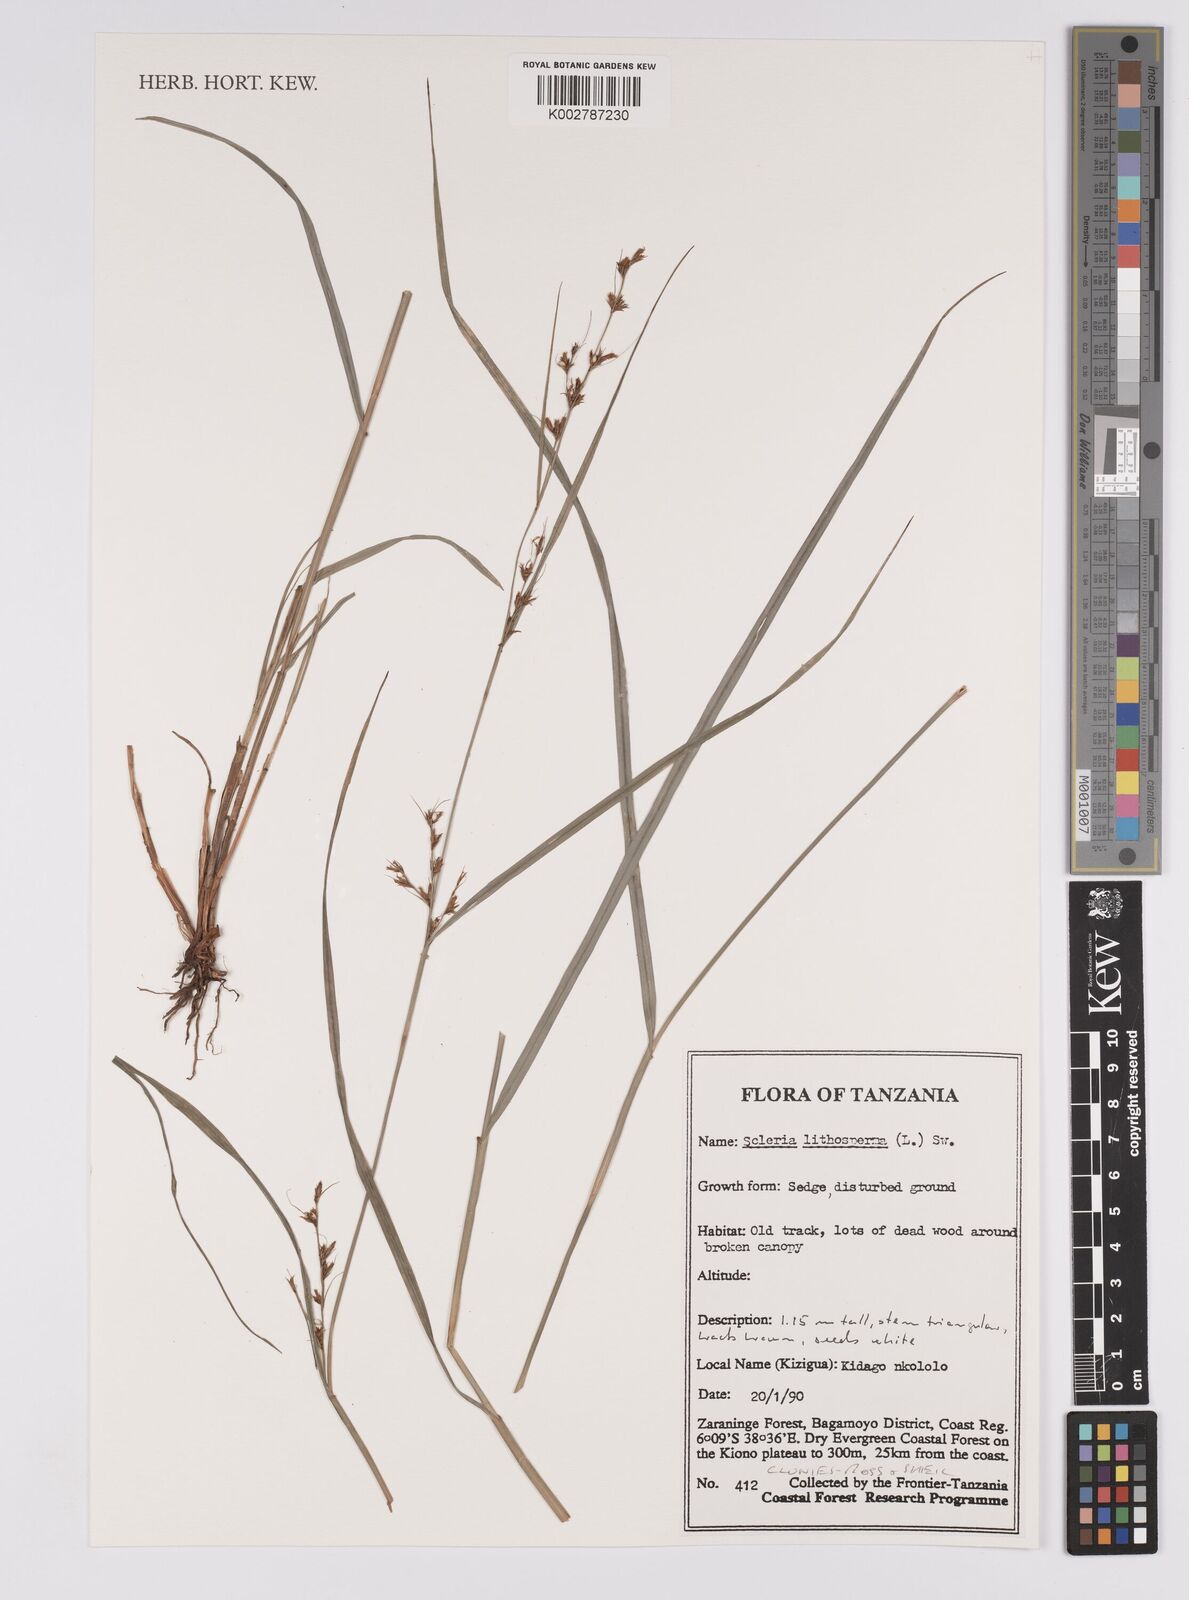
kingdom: Plantae
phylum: Tracheophyta
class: Liliopsida
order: Poales
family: Cyperaceae
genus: Scleria
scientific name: Scleria lithosperma
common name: Florida keys nut-rush
